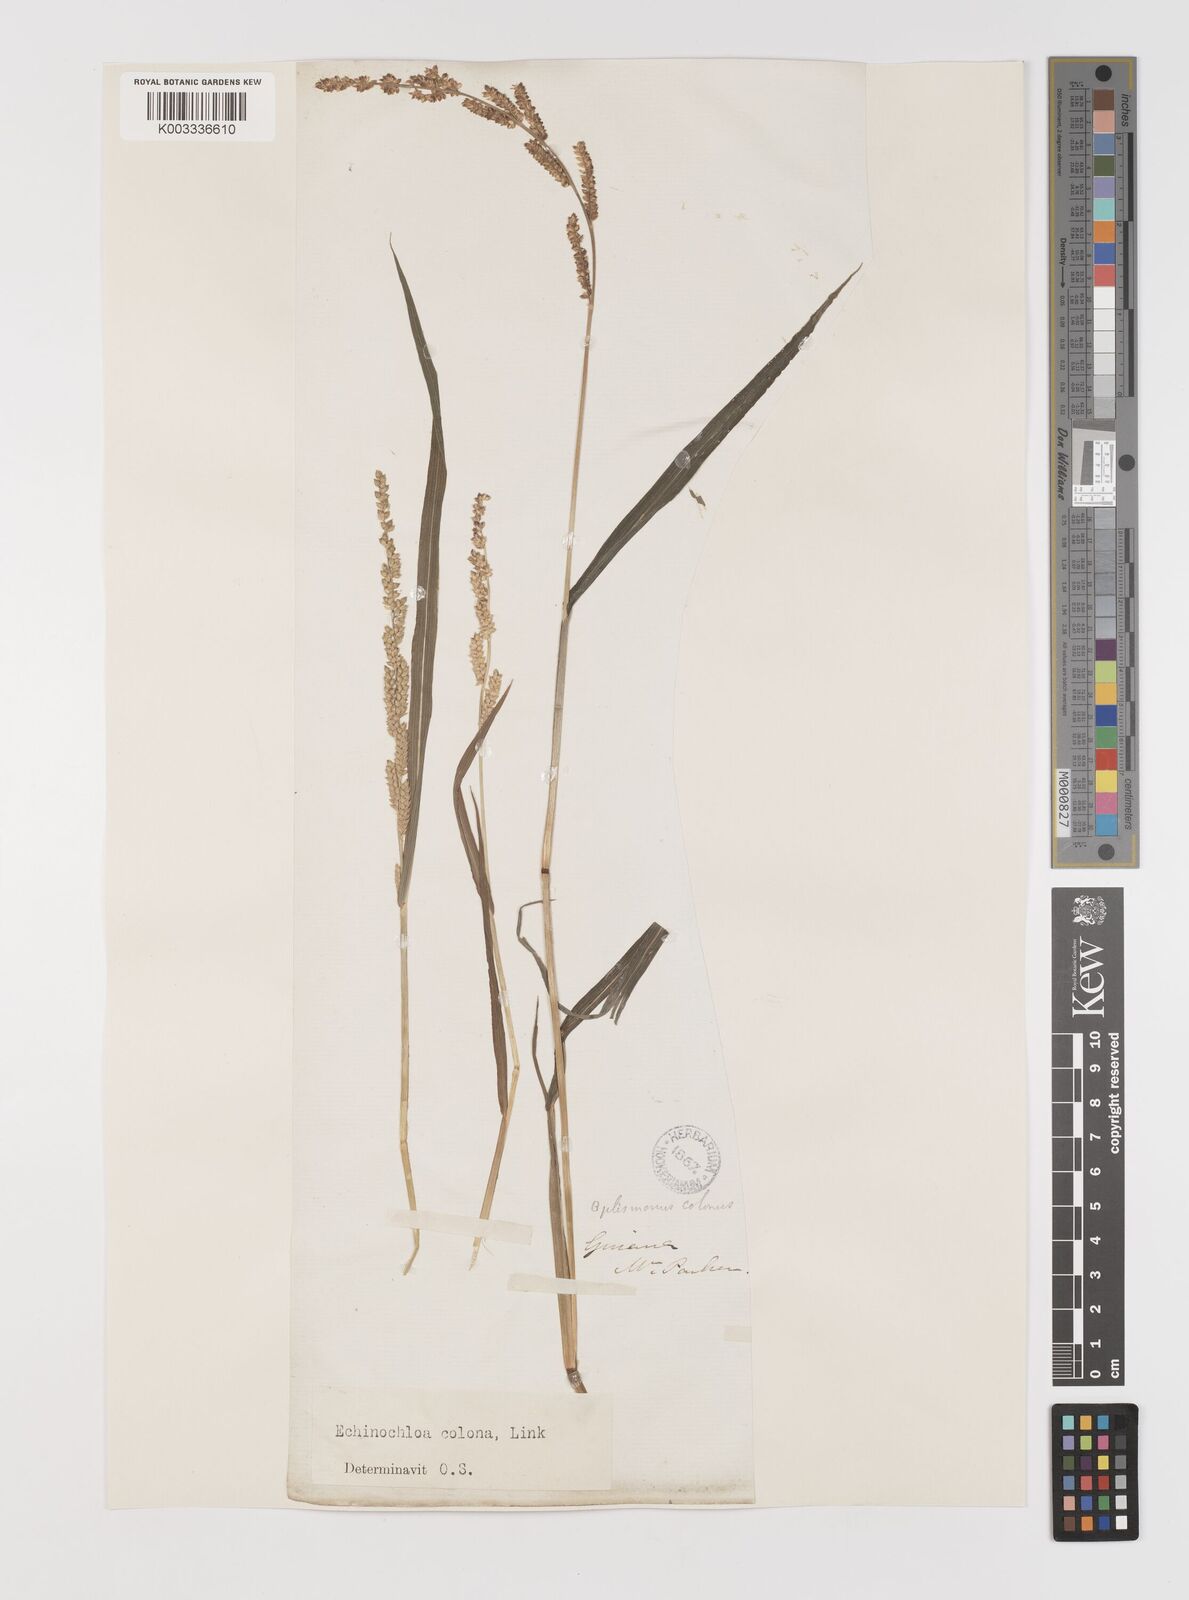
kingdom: Plantae
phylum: Tracheophyta
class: Liliopsida
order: Poales
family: Poaceae
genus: Echinochloa
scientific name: Echinochloa colonum
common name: Jungle rice
